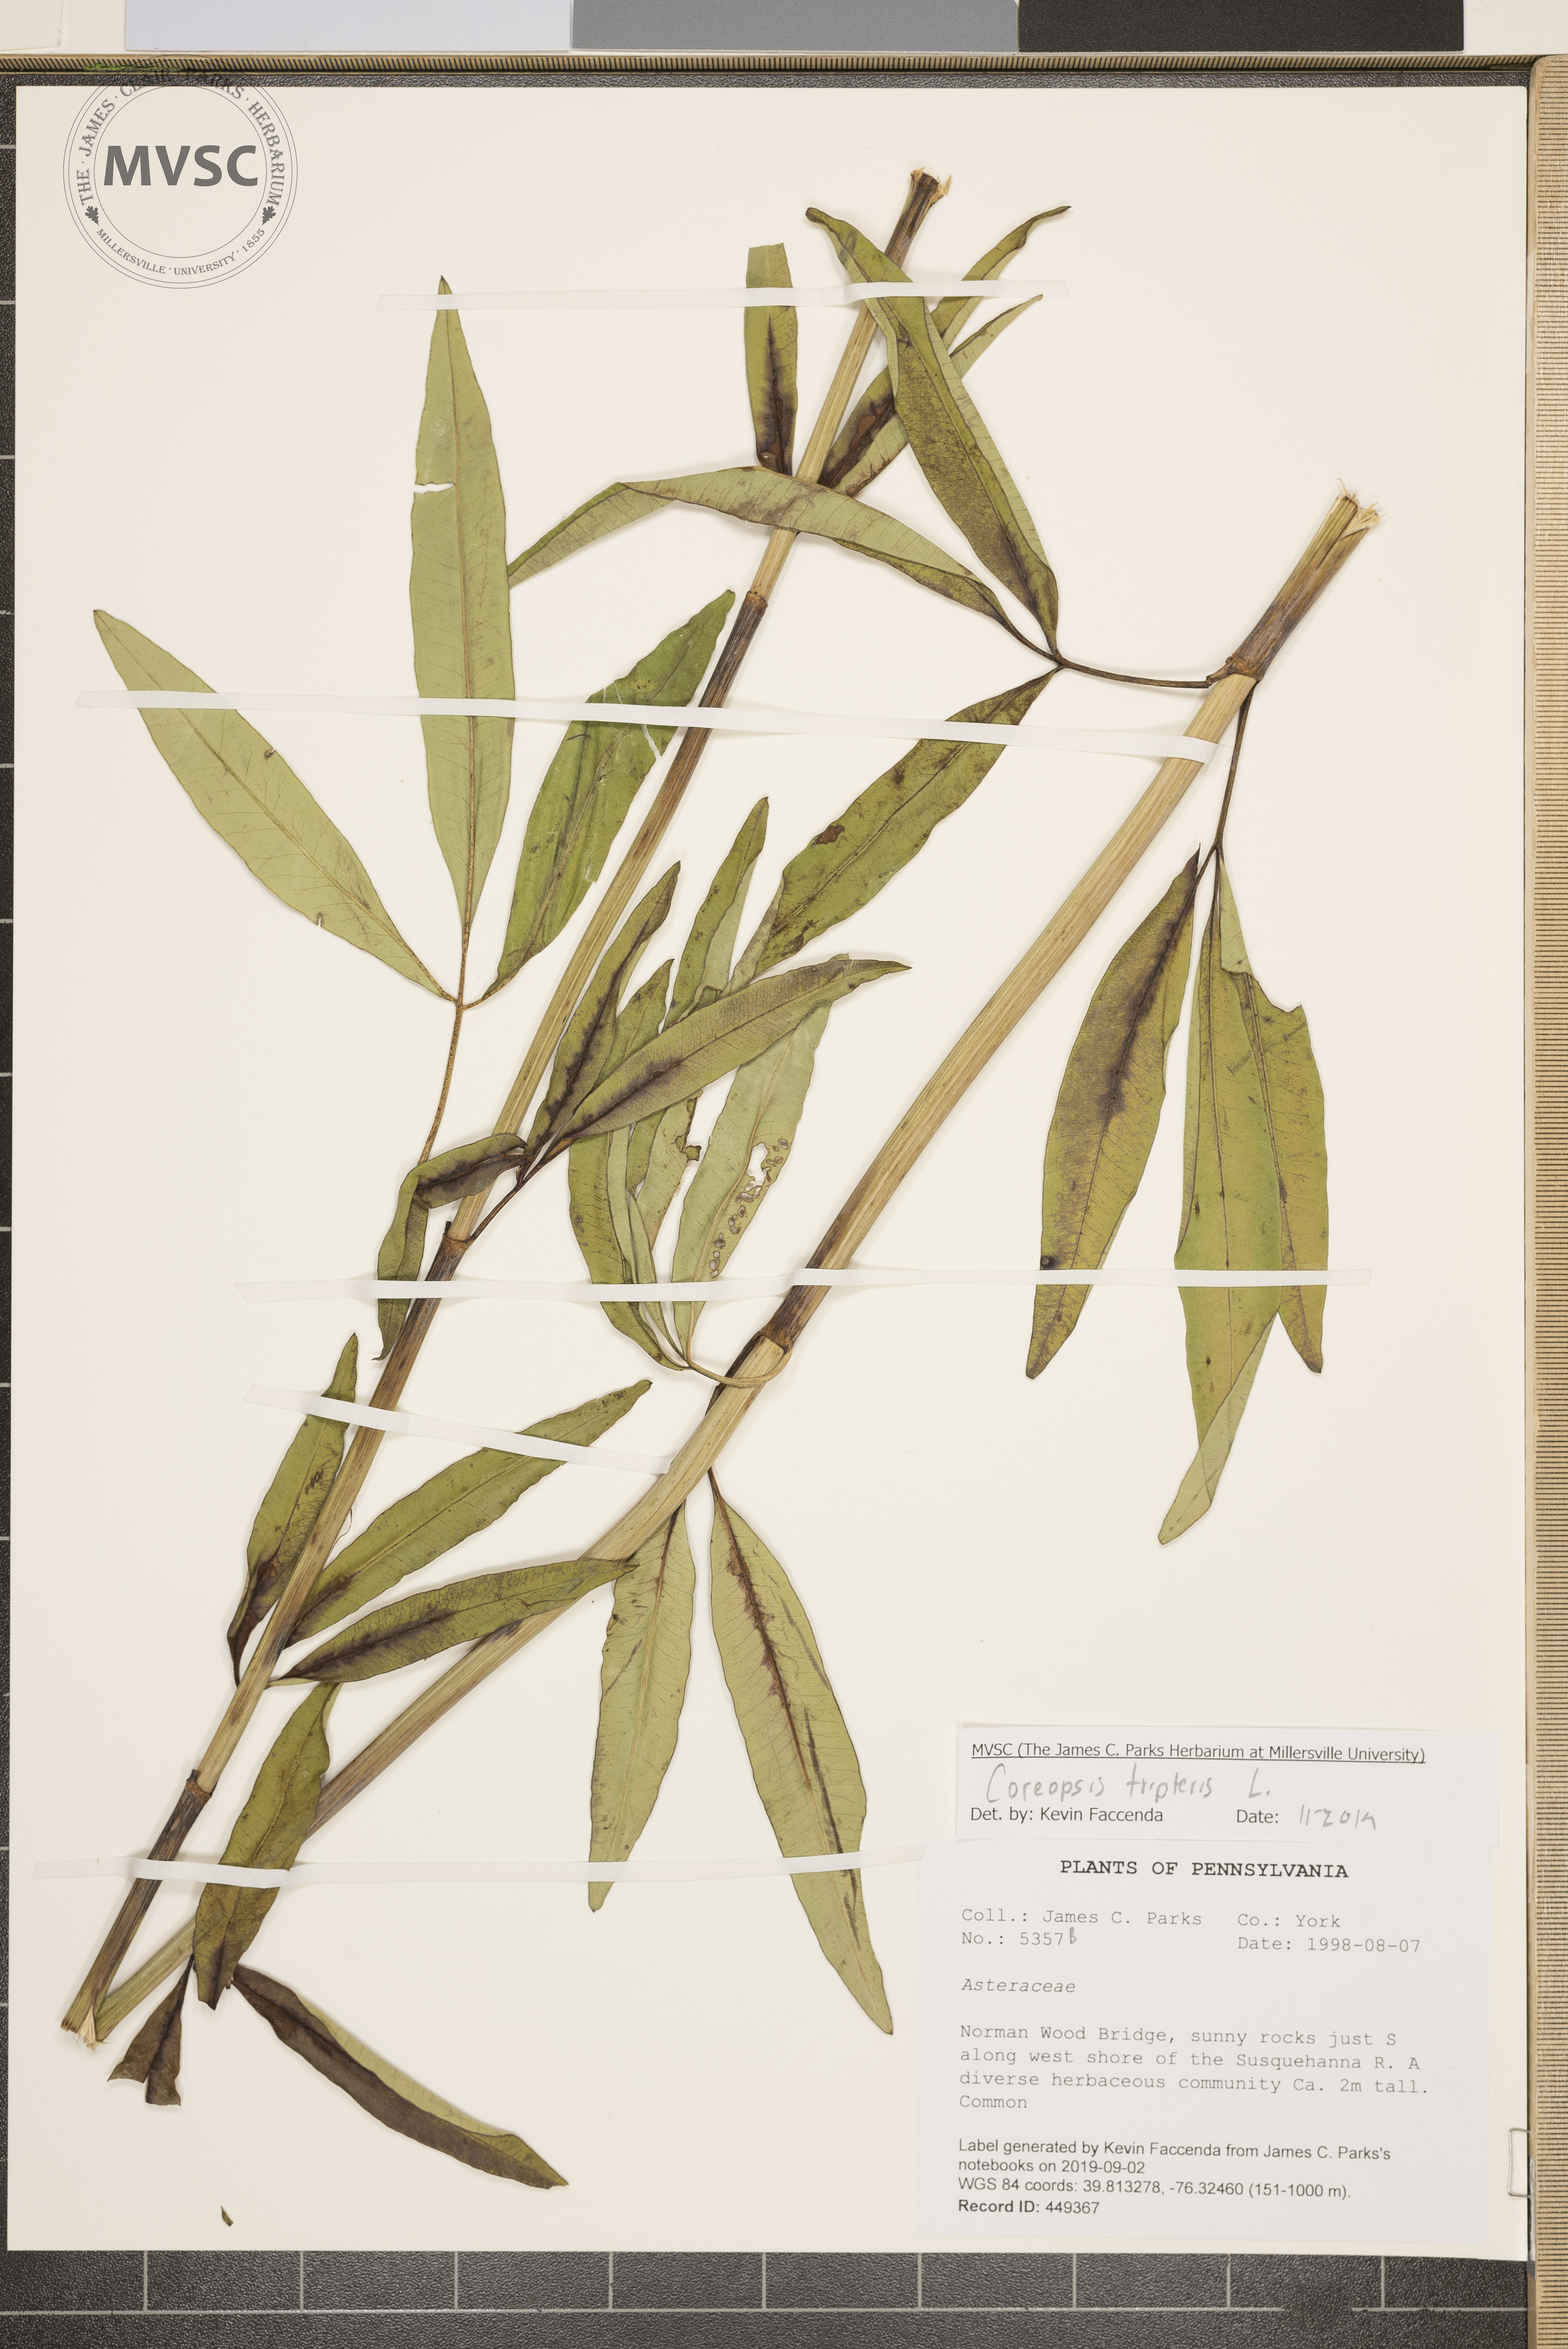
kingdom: Plantae
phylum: Tracheophyta
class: Magnoliopsida
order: Asterales
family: Asteraceae
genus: Coreopsis
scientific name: Coreopsis tripteris
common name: Tall coreopsis
